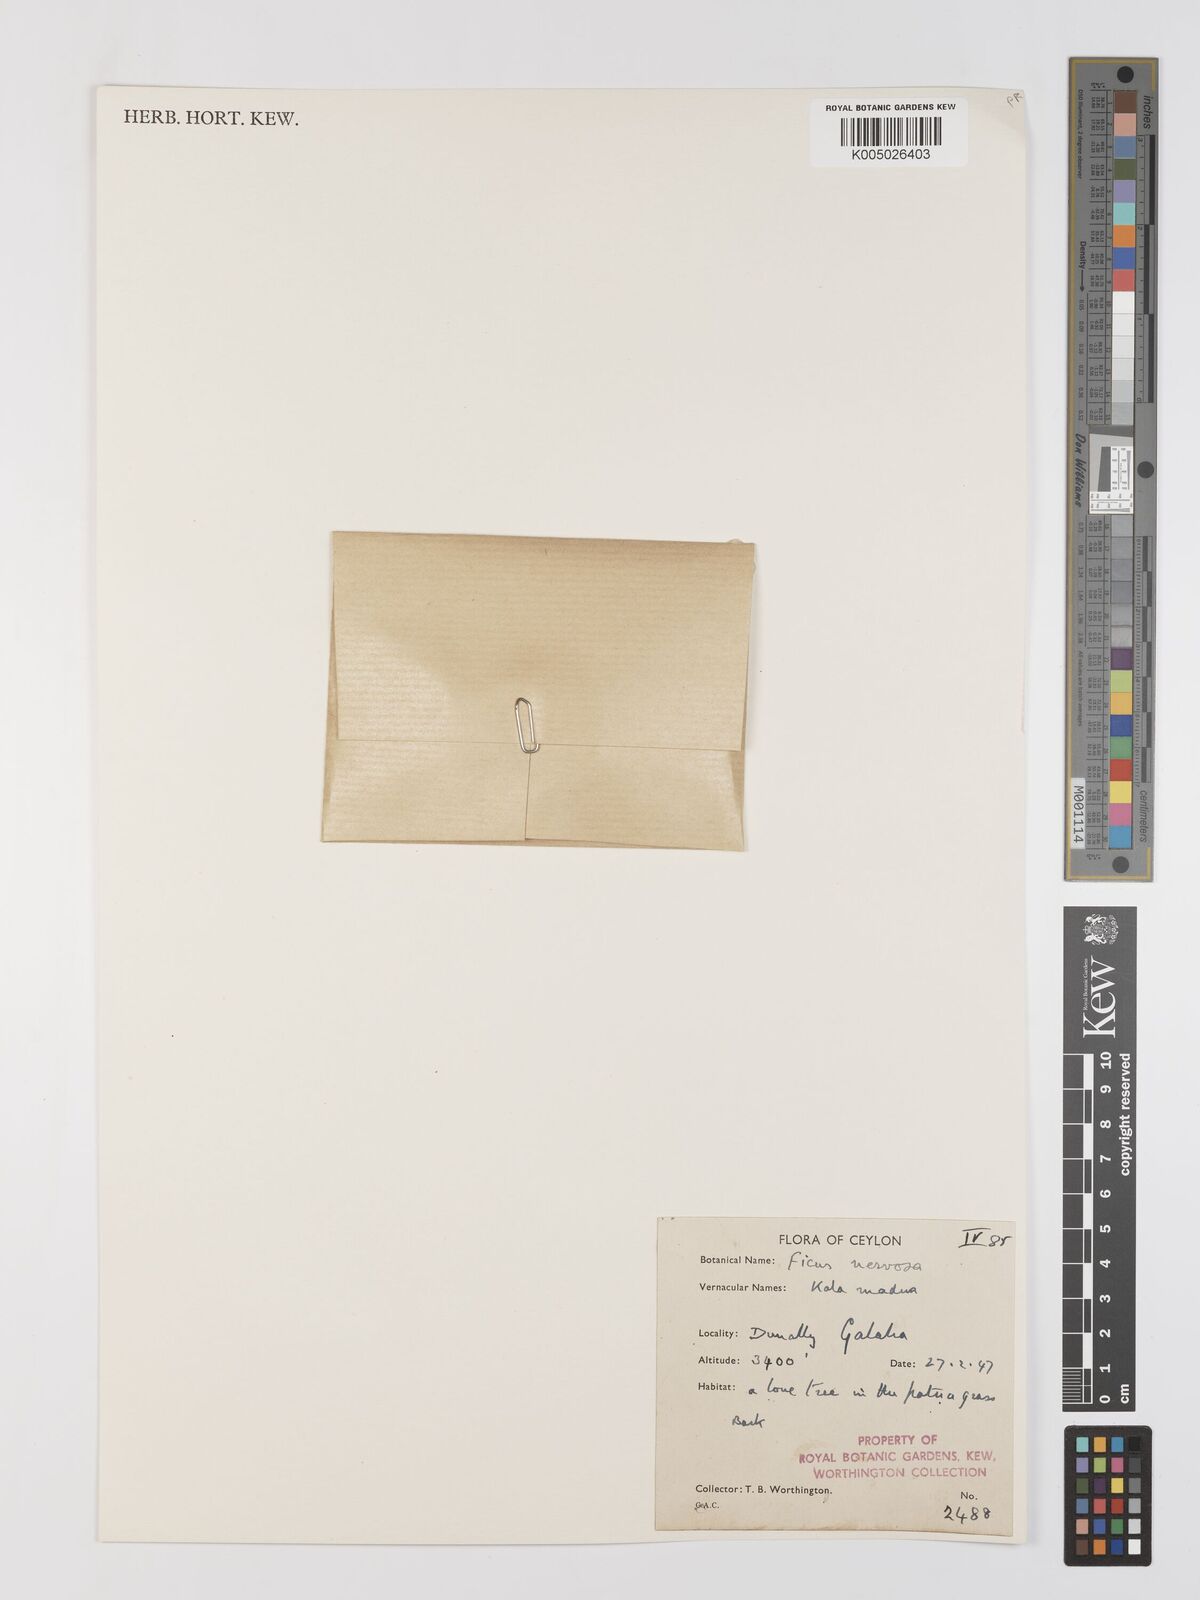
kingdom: Plantae
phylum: Tracheophyta
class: Magnoliopsida
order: Rosales
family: Moraceae
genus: Ficus
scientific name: Ficus nervosa
